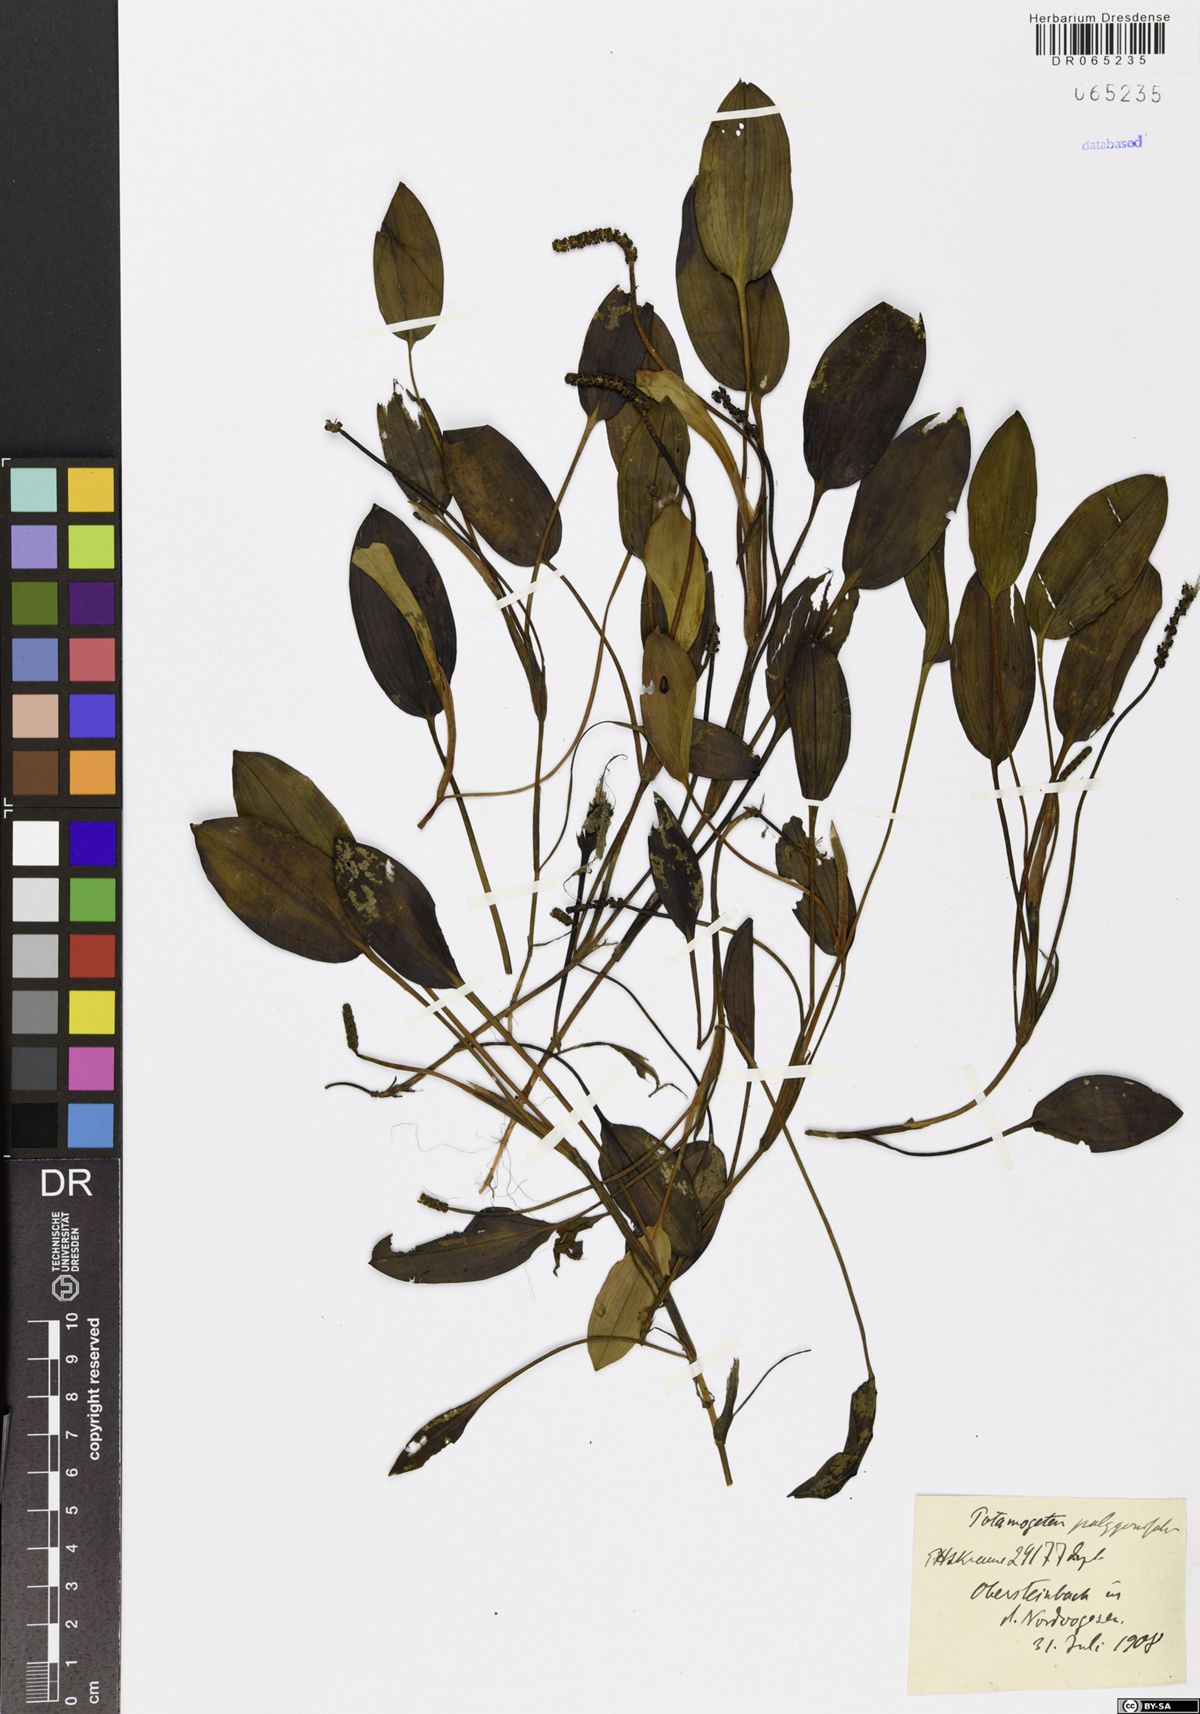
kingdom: Plantae
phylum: Tracheophyta
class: Liliopsida
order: Alismatales
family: Potamogetonaceae
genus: Potamogeton
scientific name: Potamogeton polygonifolius
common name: Bog pondweed
